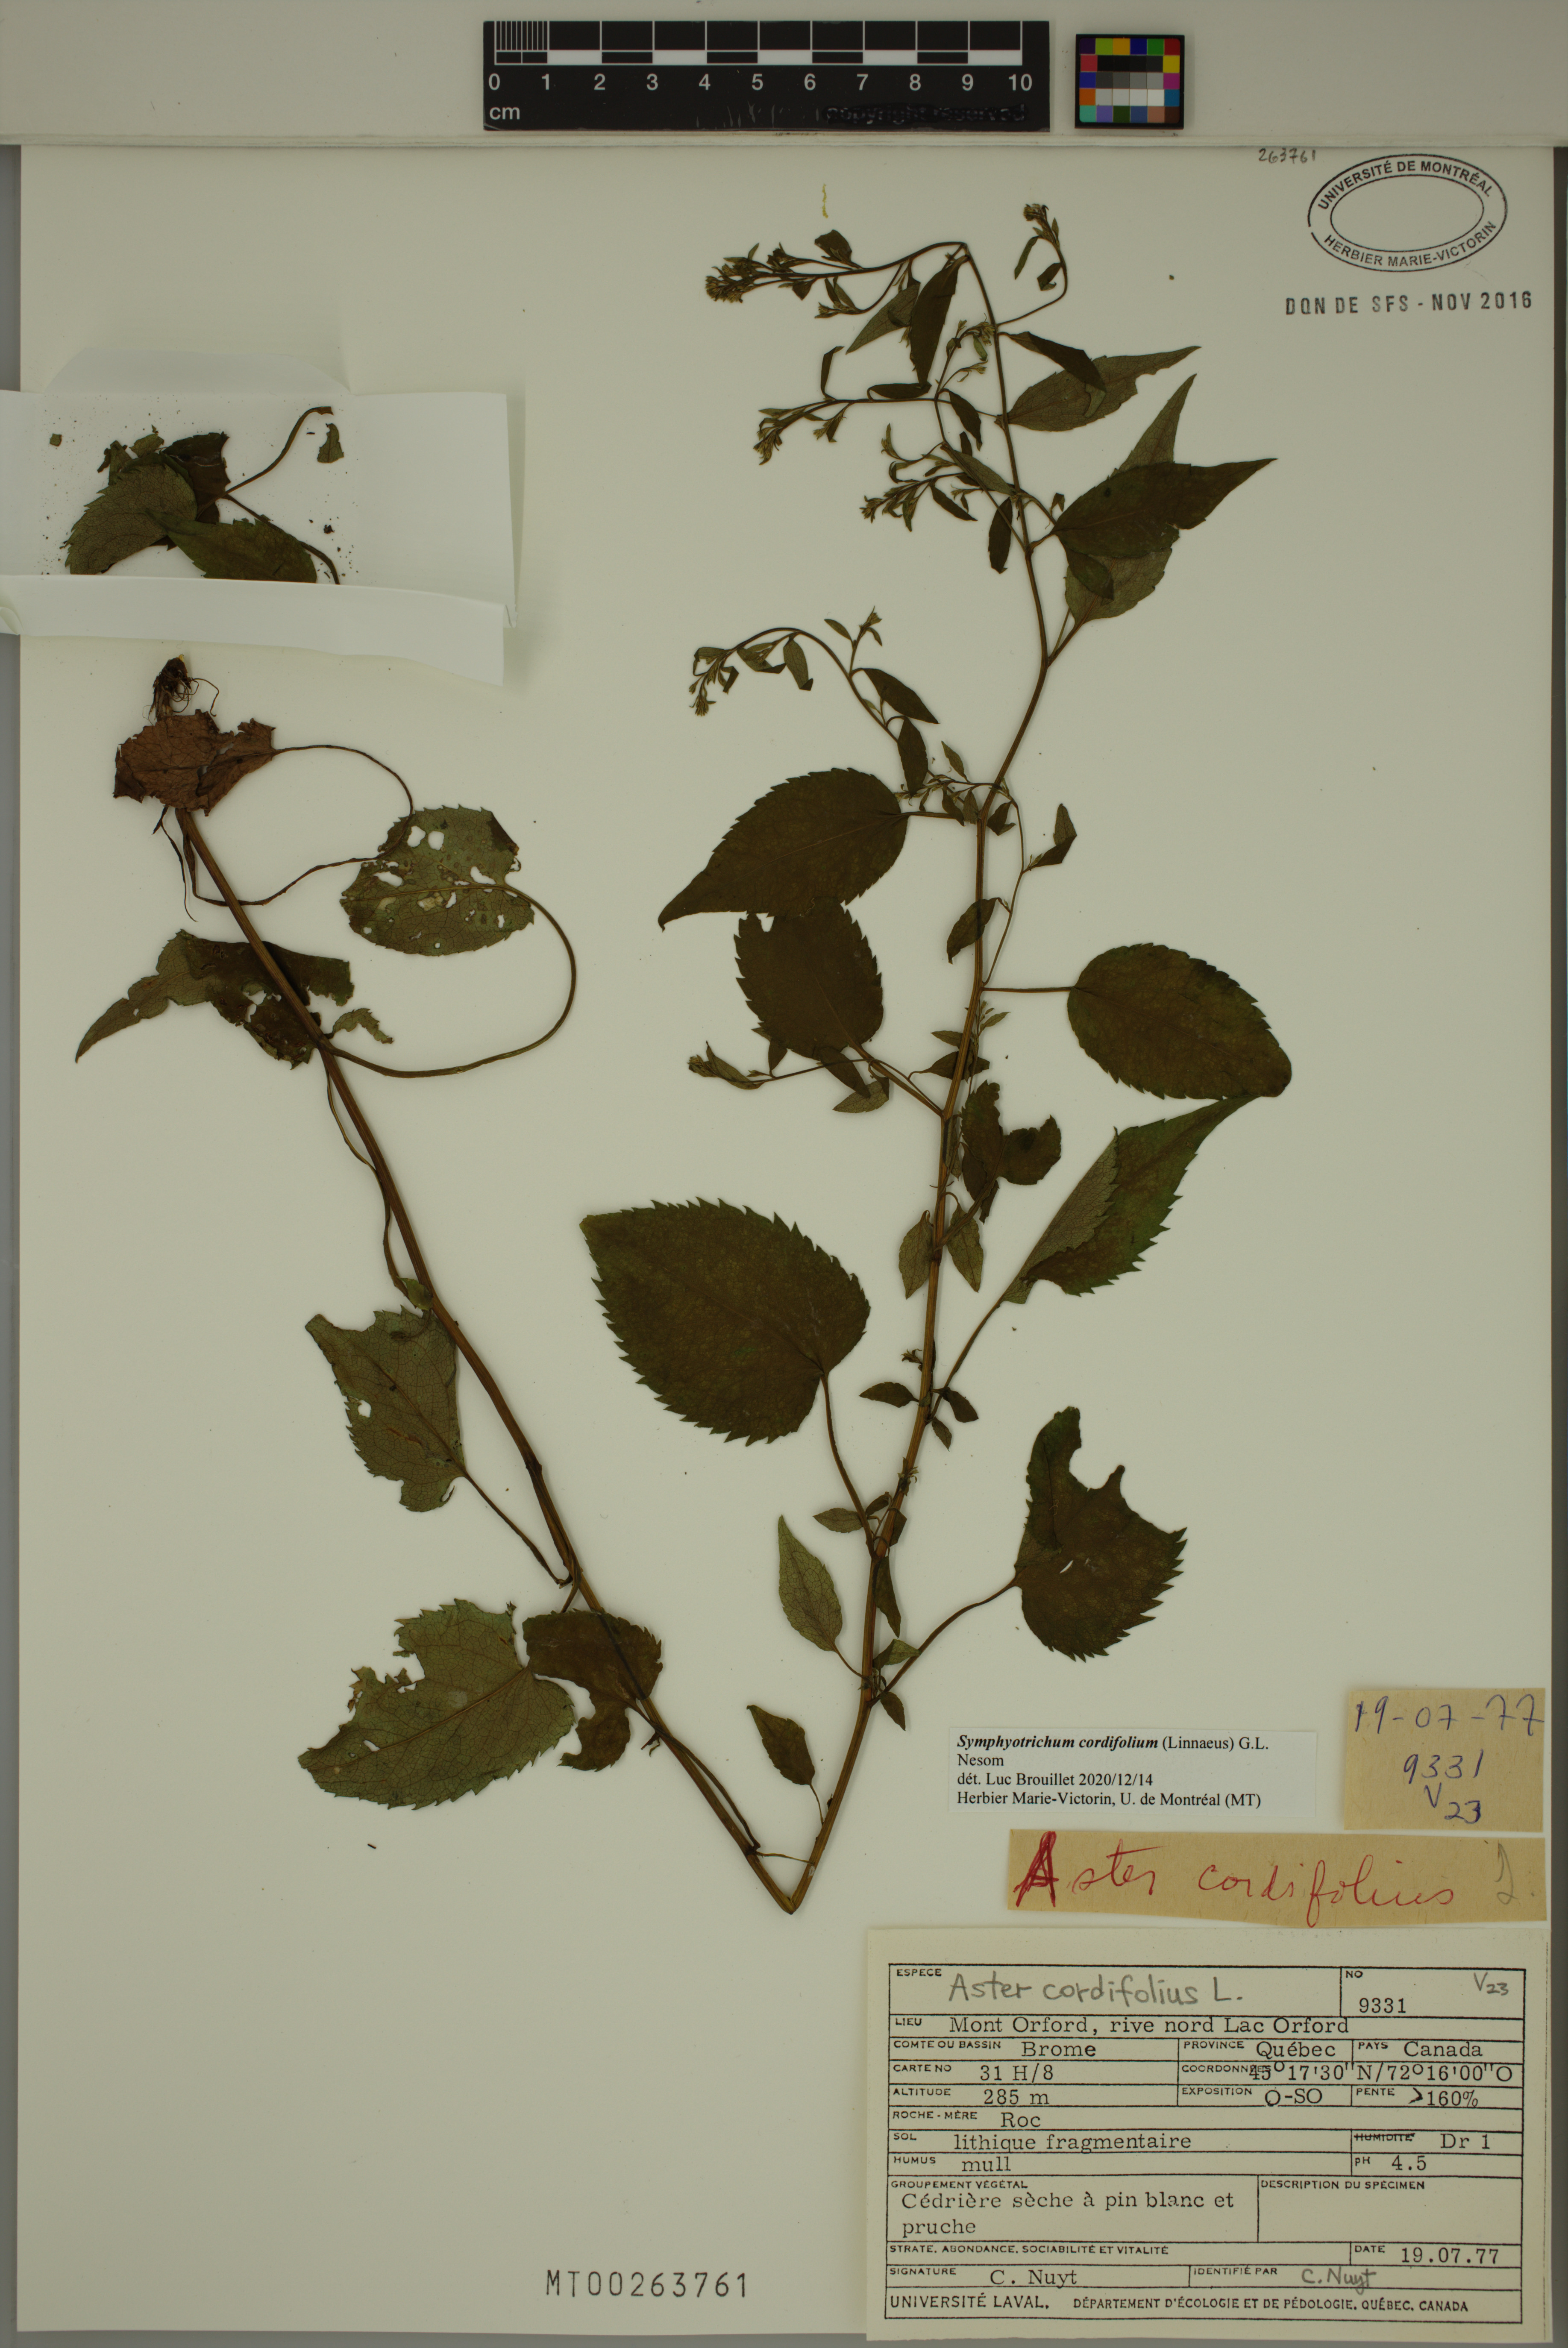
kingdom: Plantae
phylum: Tracheophyta
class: Magnoliopsida
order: Asterales
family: Asteraceae
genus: Symphyotrichum
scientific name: Symphyotrichum cordifolium
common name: Beeweed
